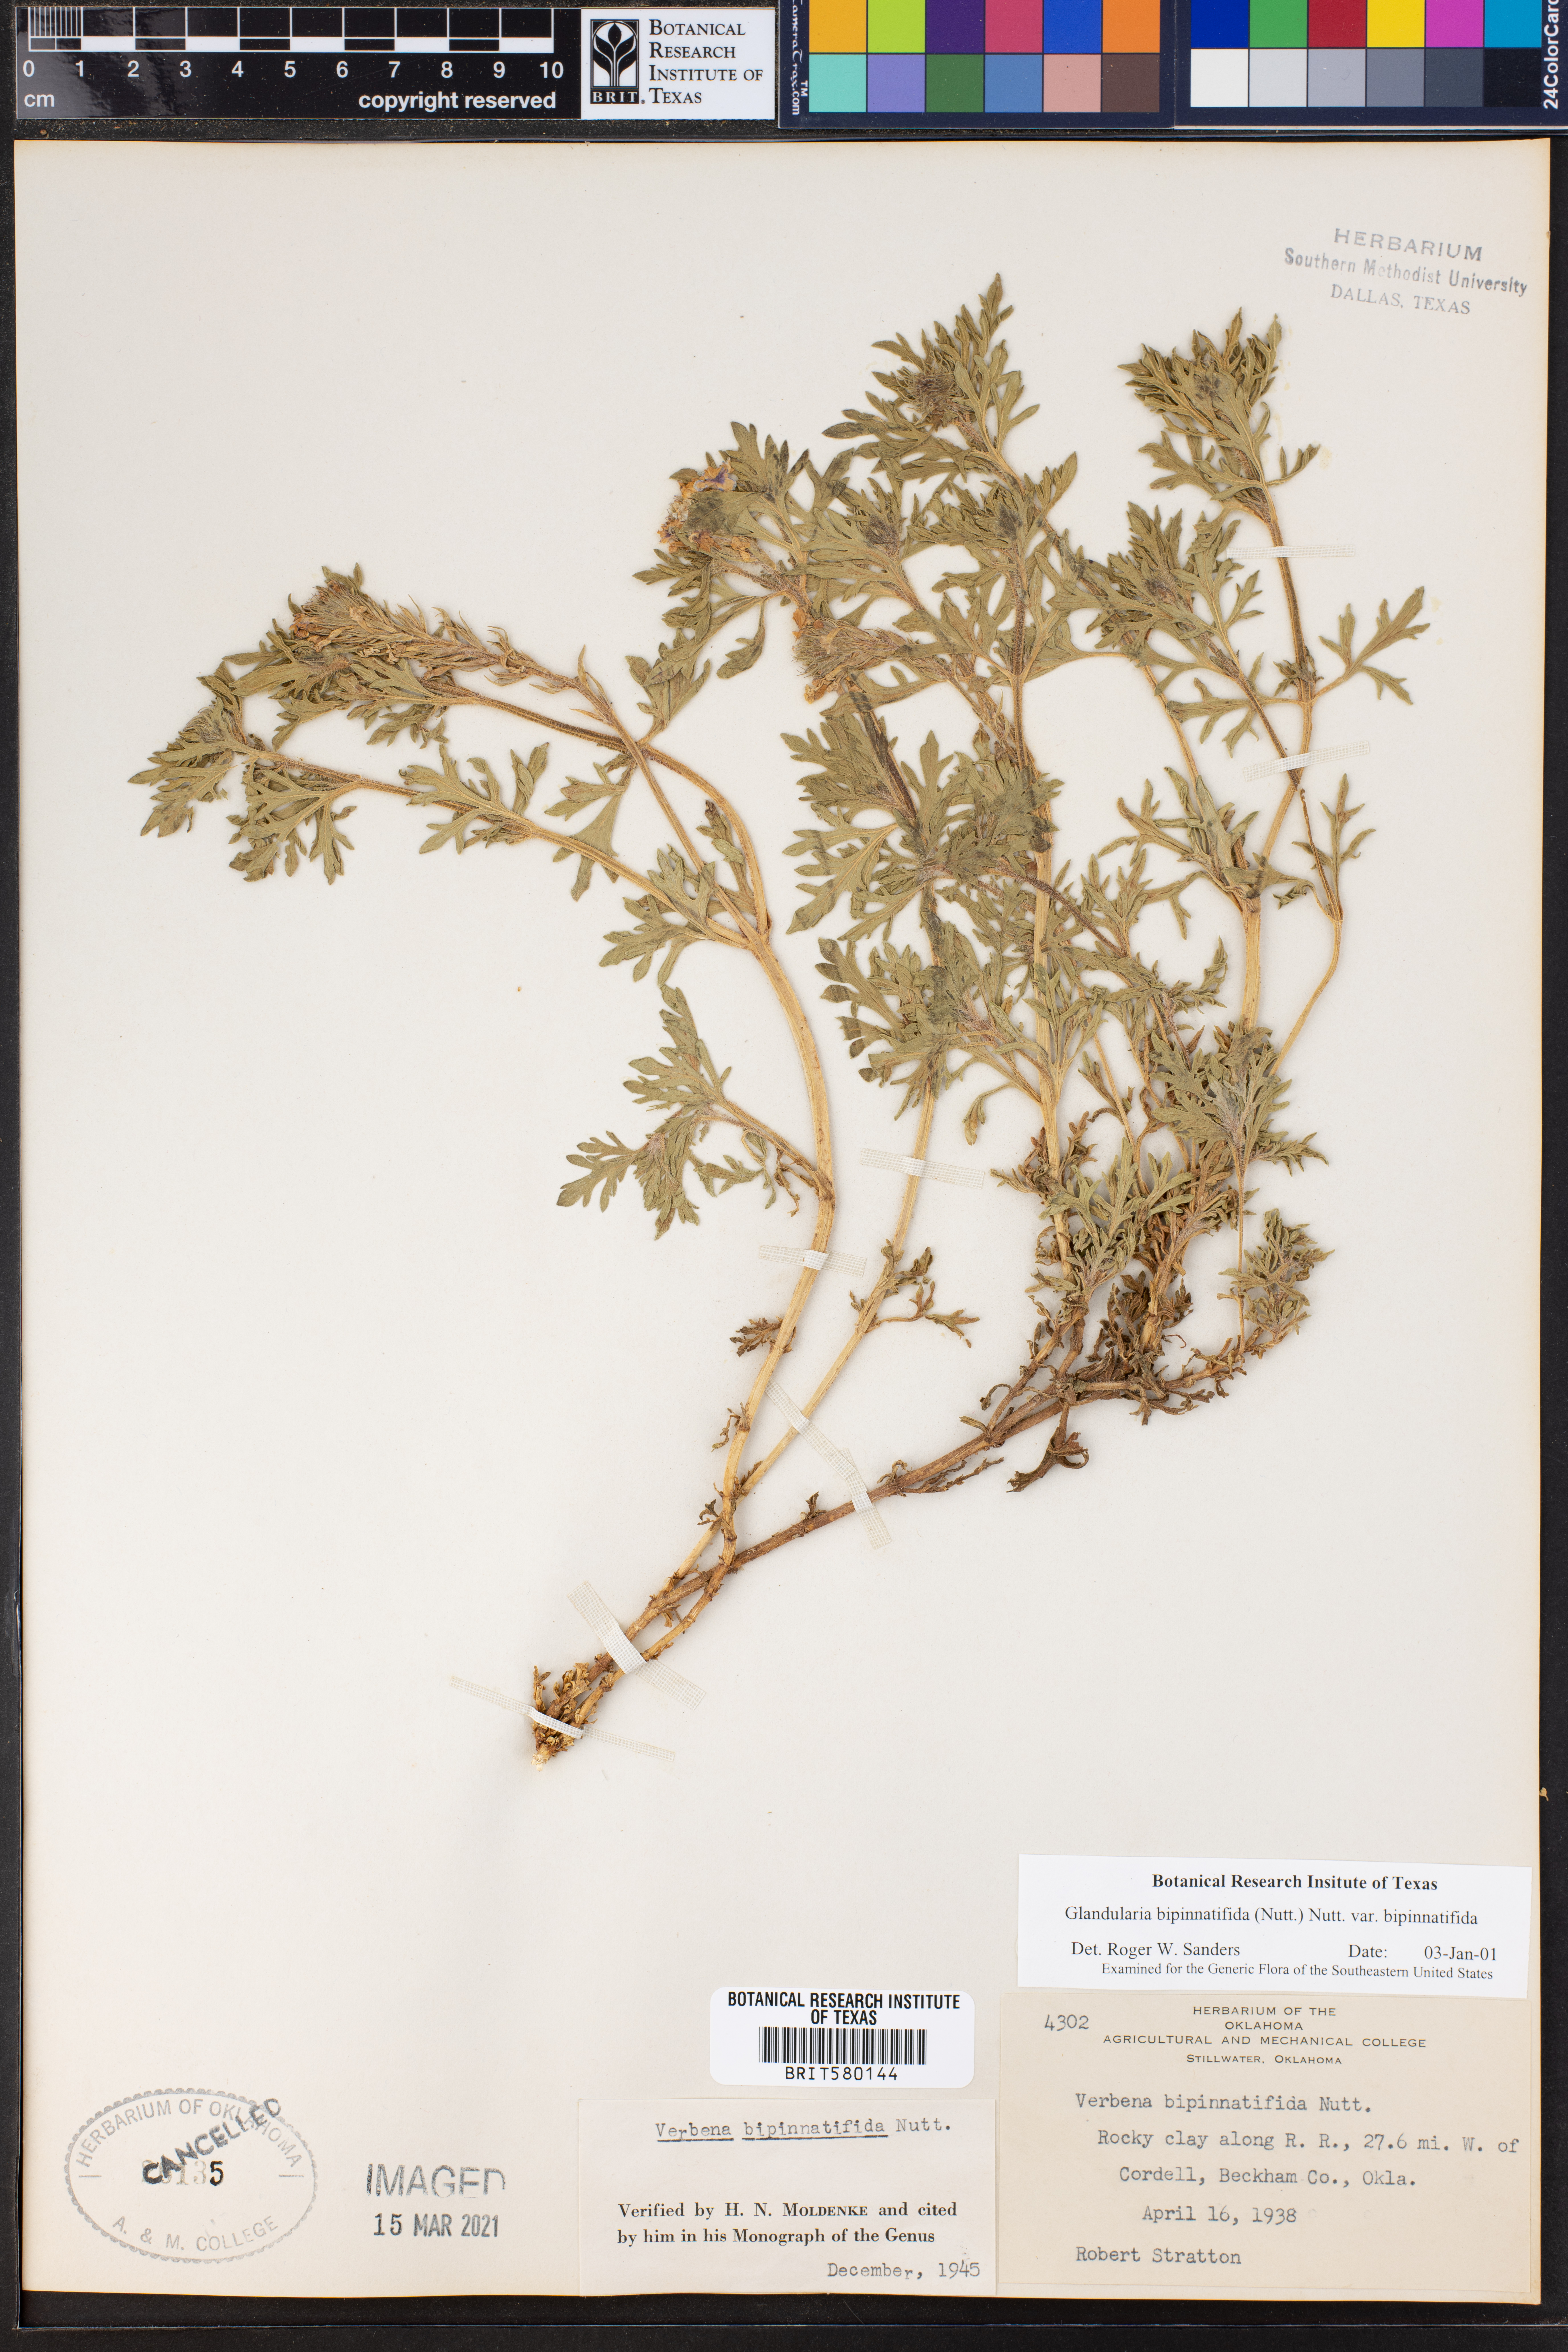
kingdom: Plantae
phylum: Tracheophyta
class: Magnoliopsida
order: Lamiales
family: Verbenaceae
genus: Verbena
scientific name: Verbena bipinnatifida
